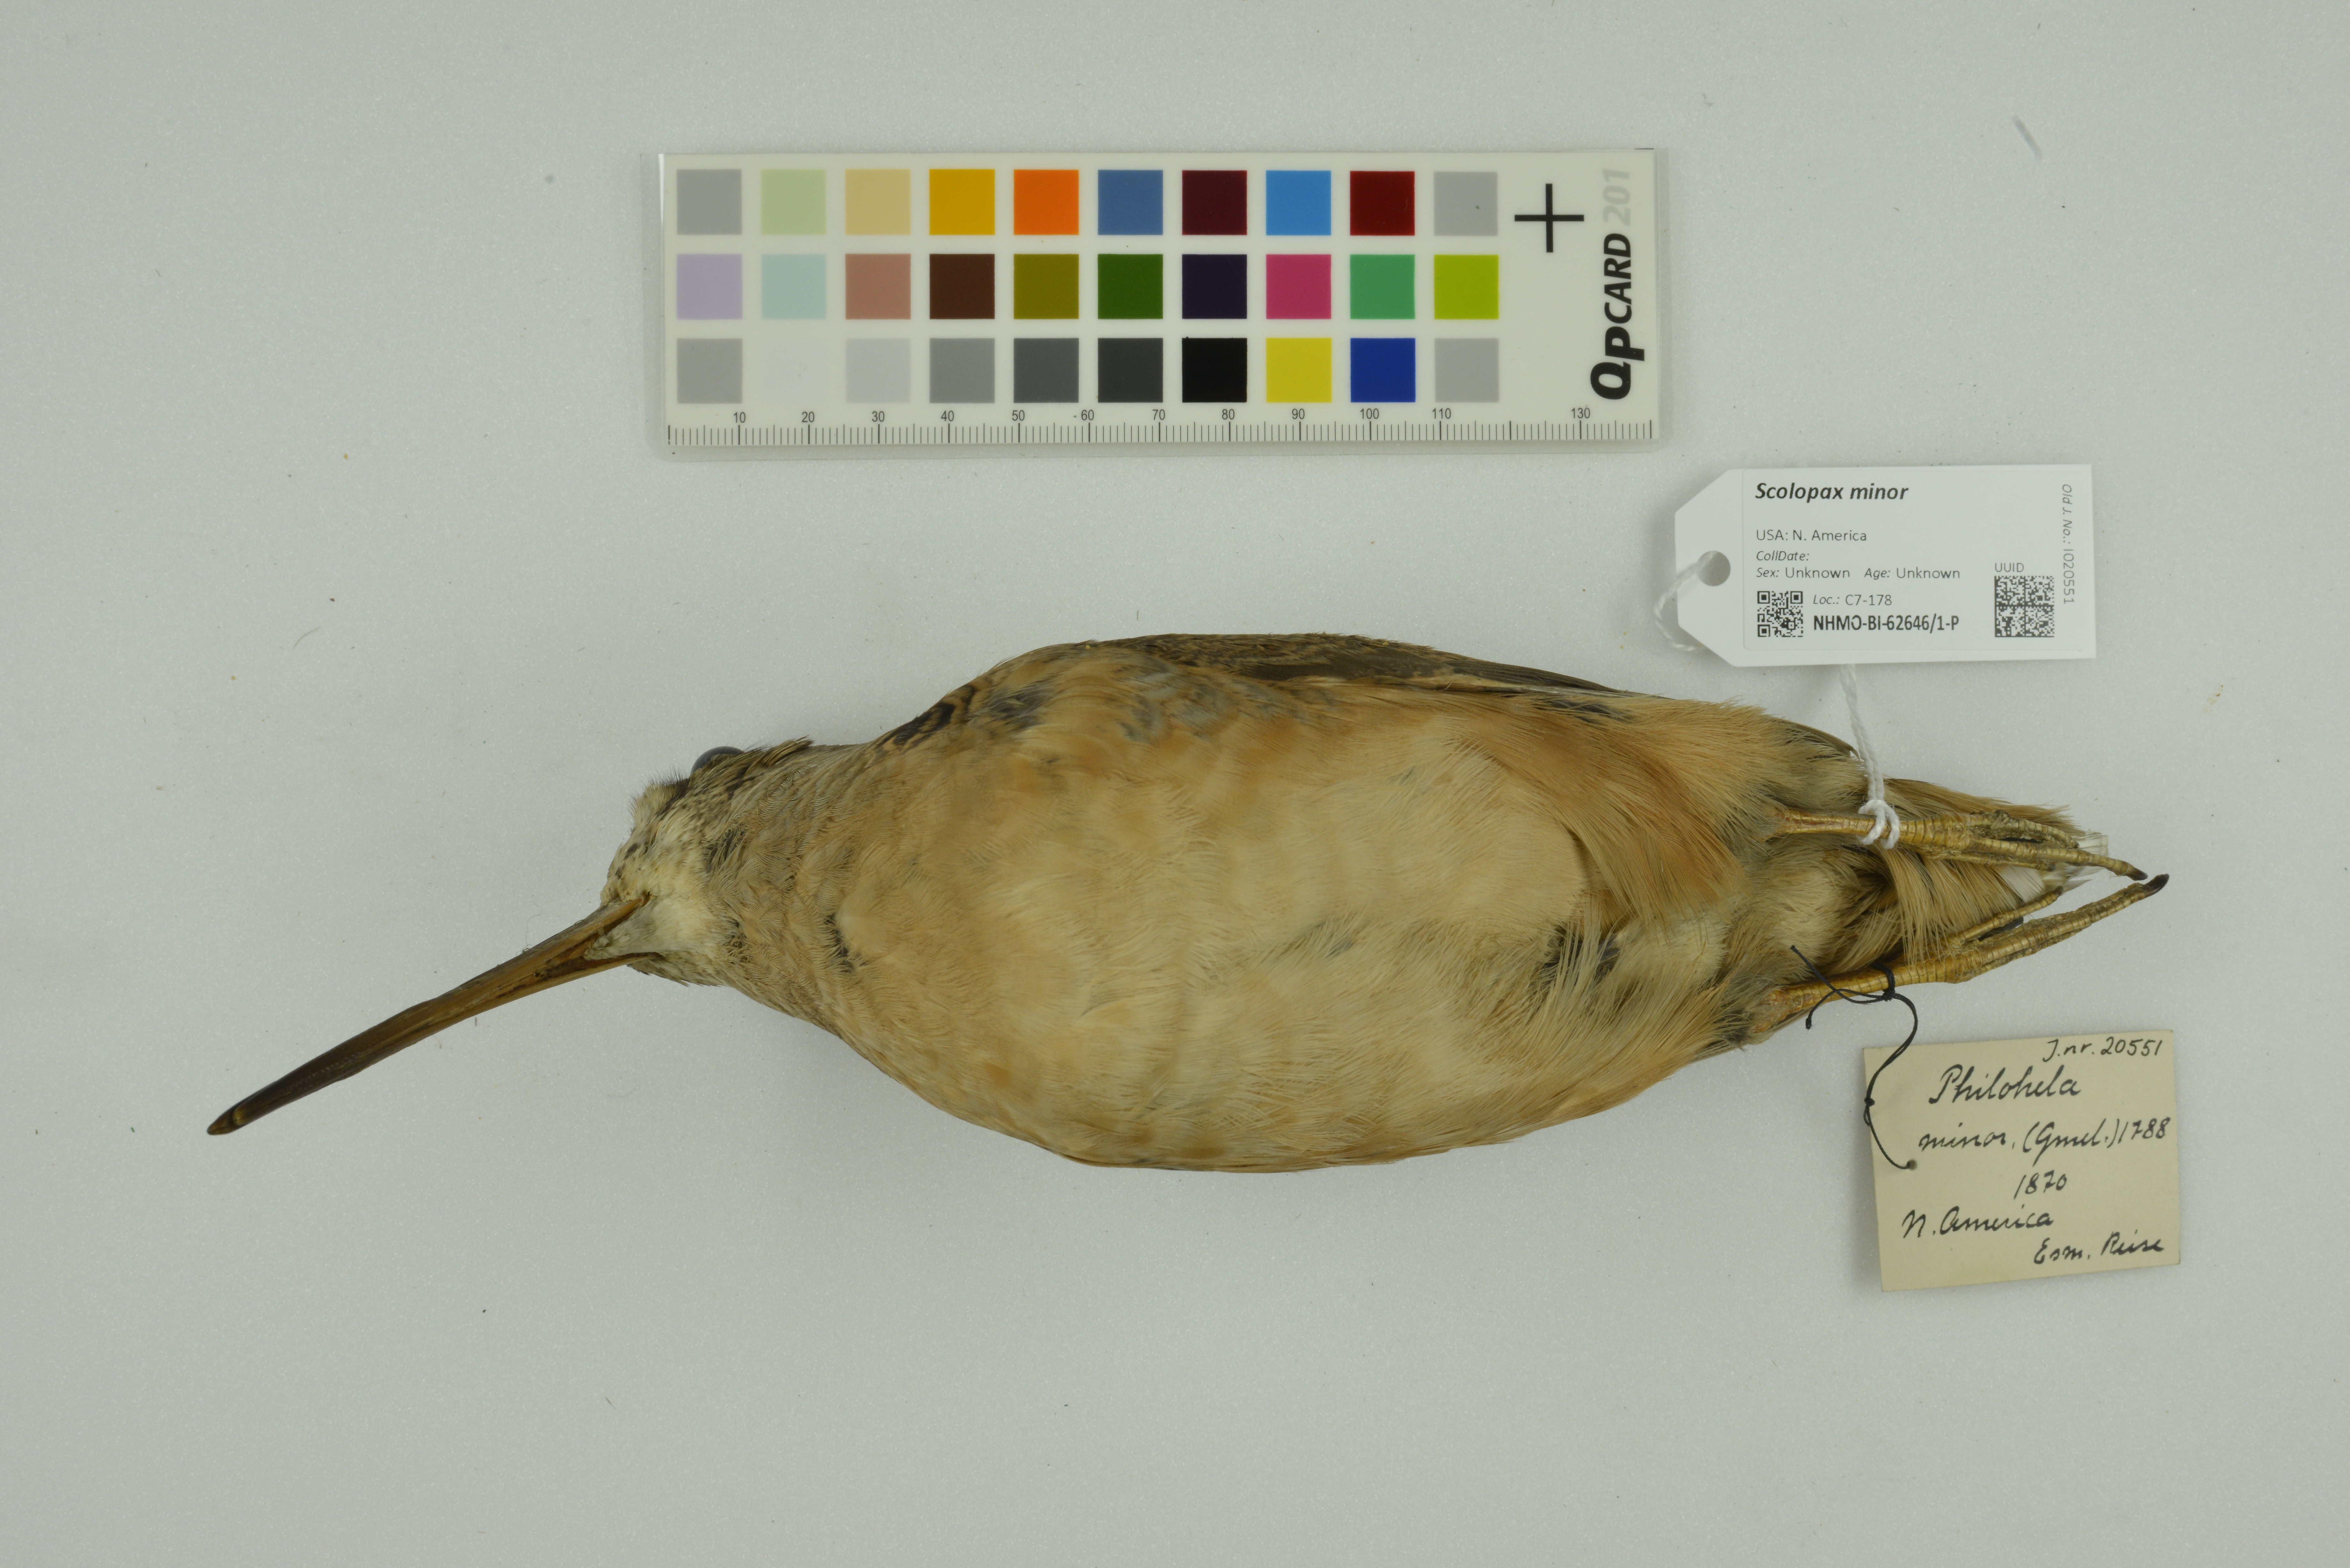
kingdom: Animalia
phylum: Chordata
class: Aves
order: Charadriiformes
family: Scolopacidae
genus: Scolopax
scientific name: Scolopax minor
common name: American woodcock
